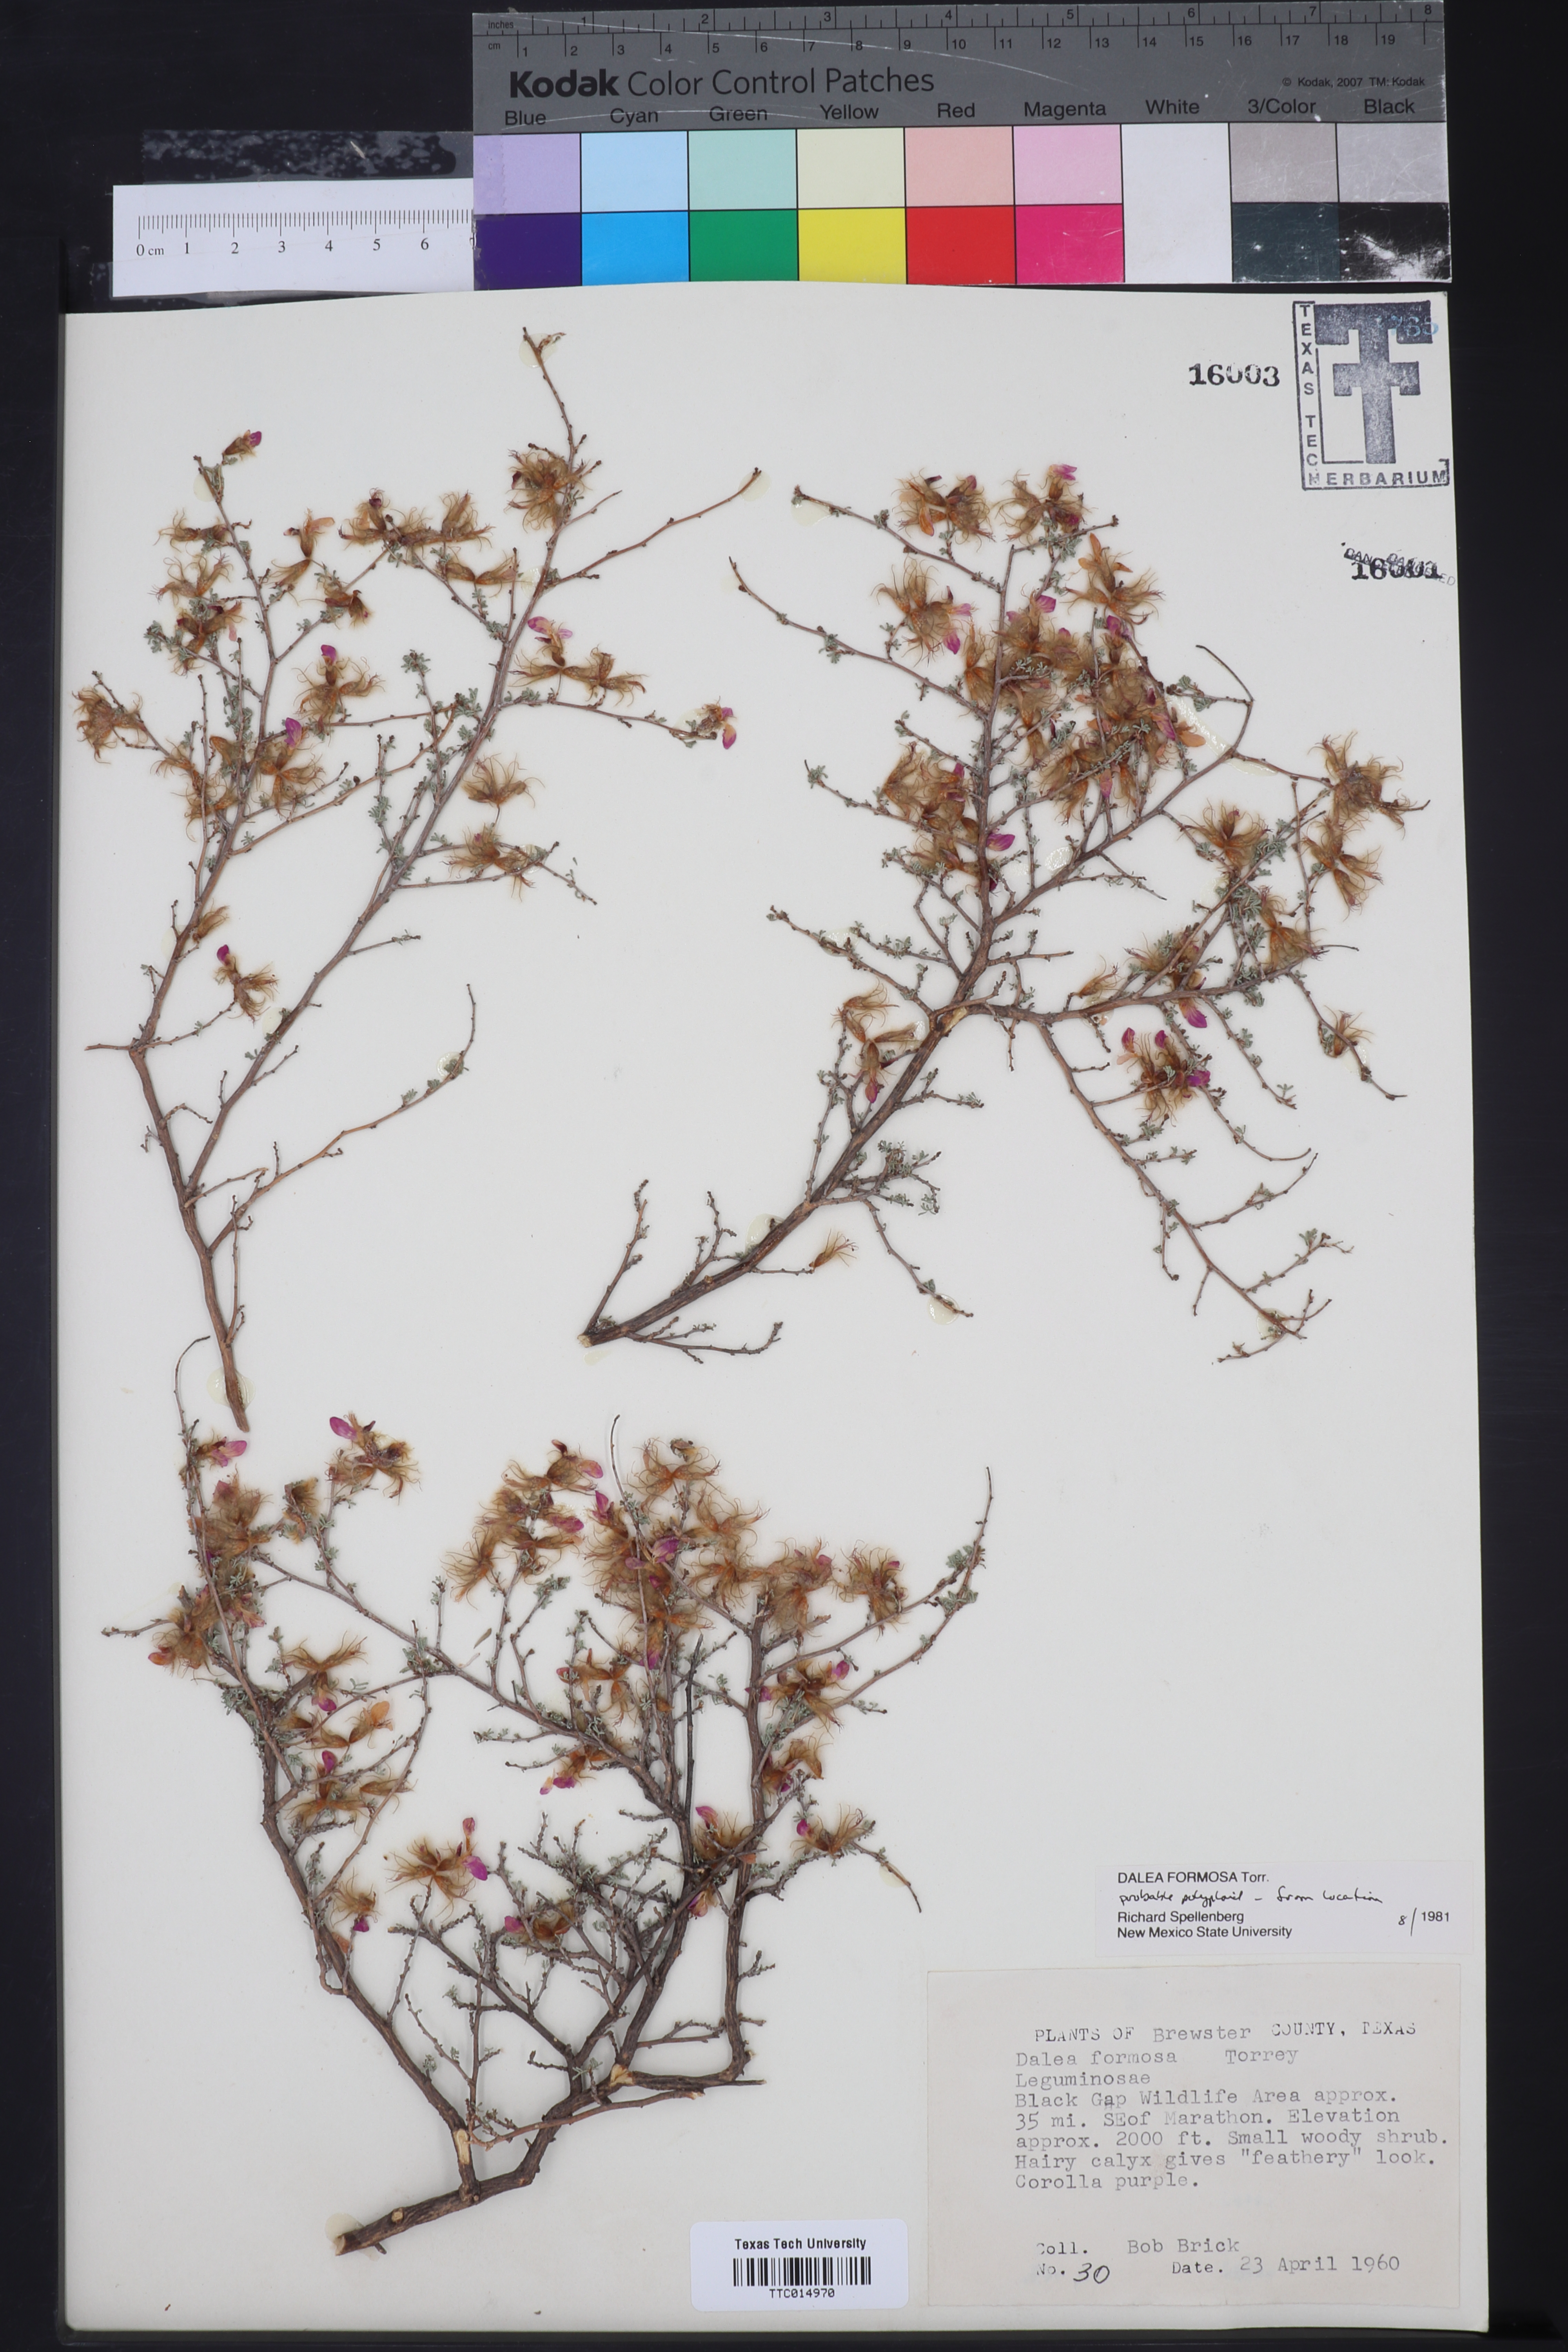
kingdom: Plantae
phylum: Tracheophyta
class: Magnoliopsida
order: Fabales
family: Fabaceae
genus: Dalea
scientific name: Dalea formosa
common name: Feather-plume dalea
